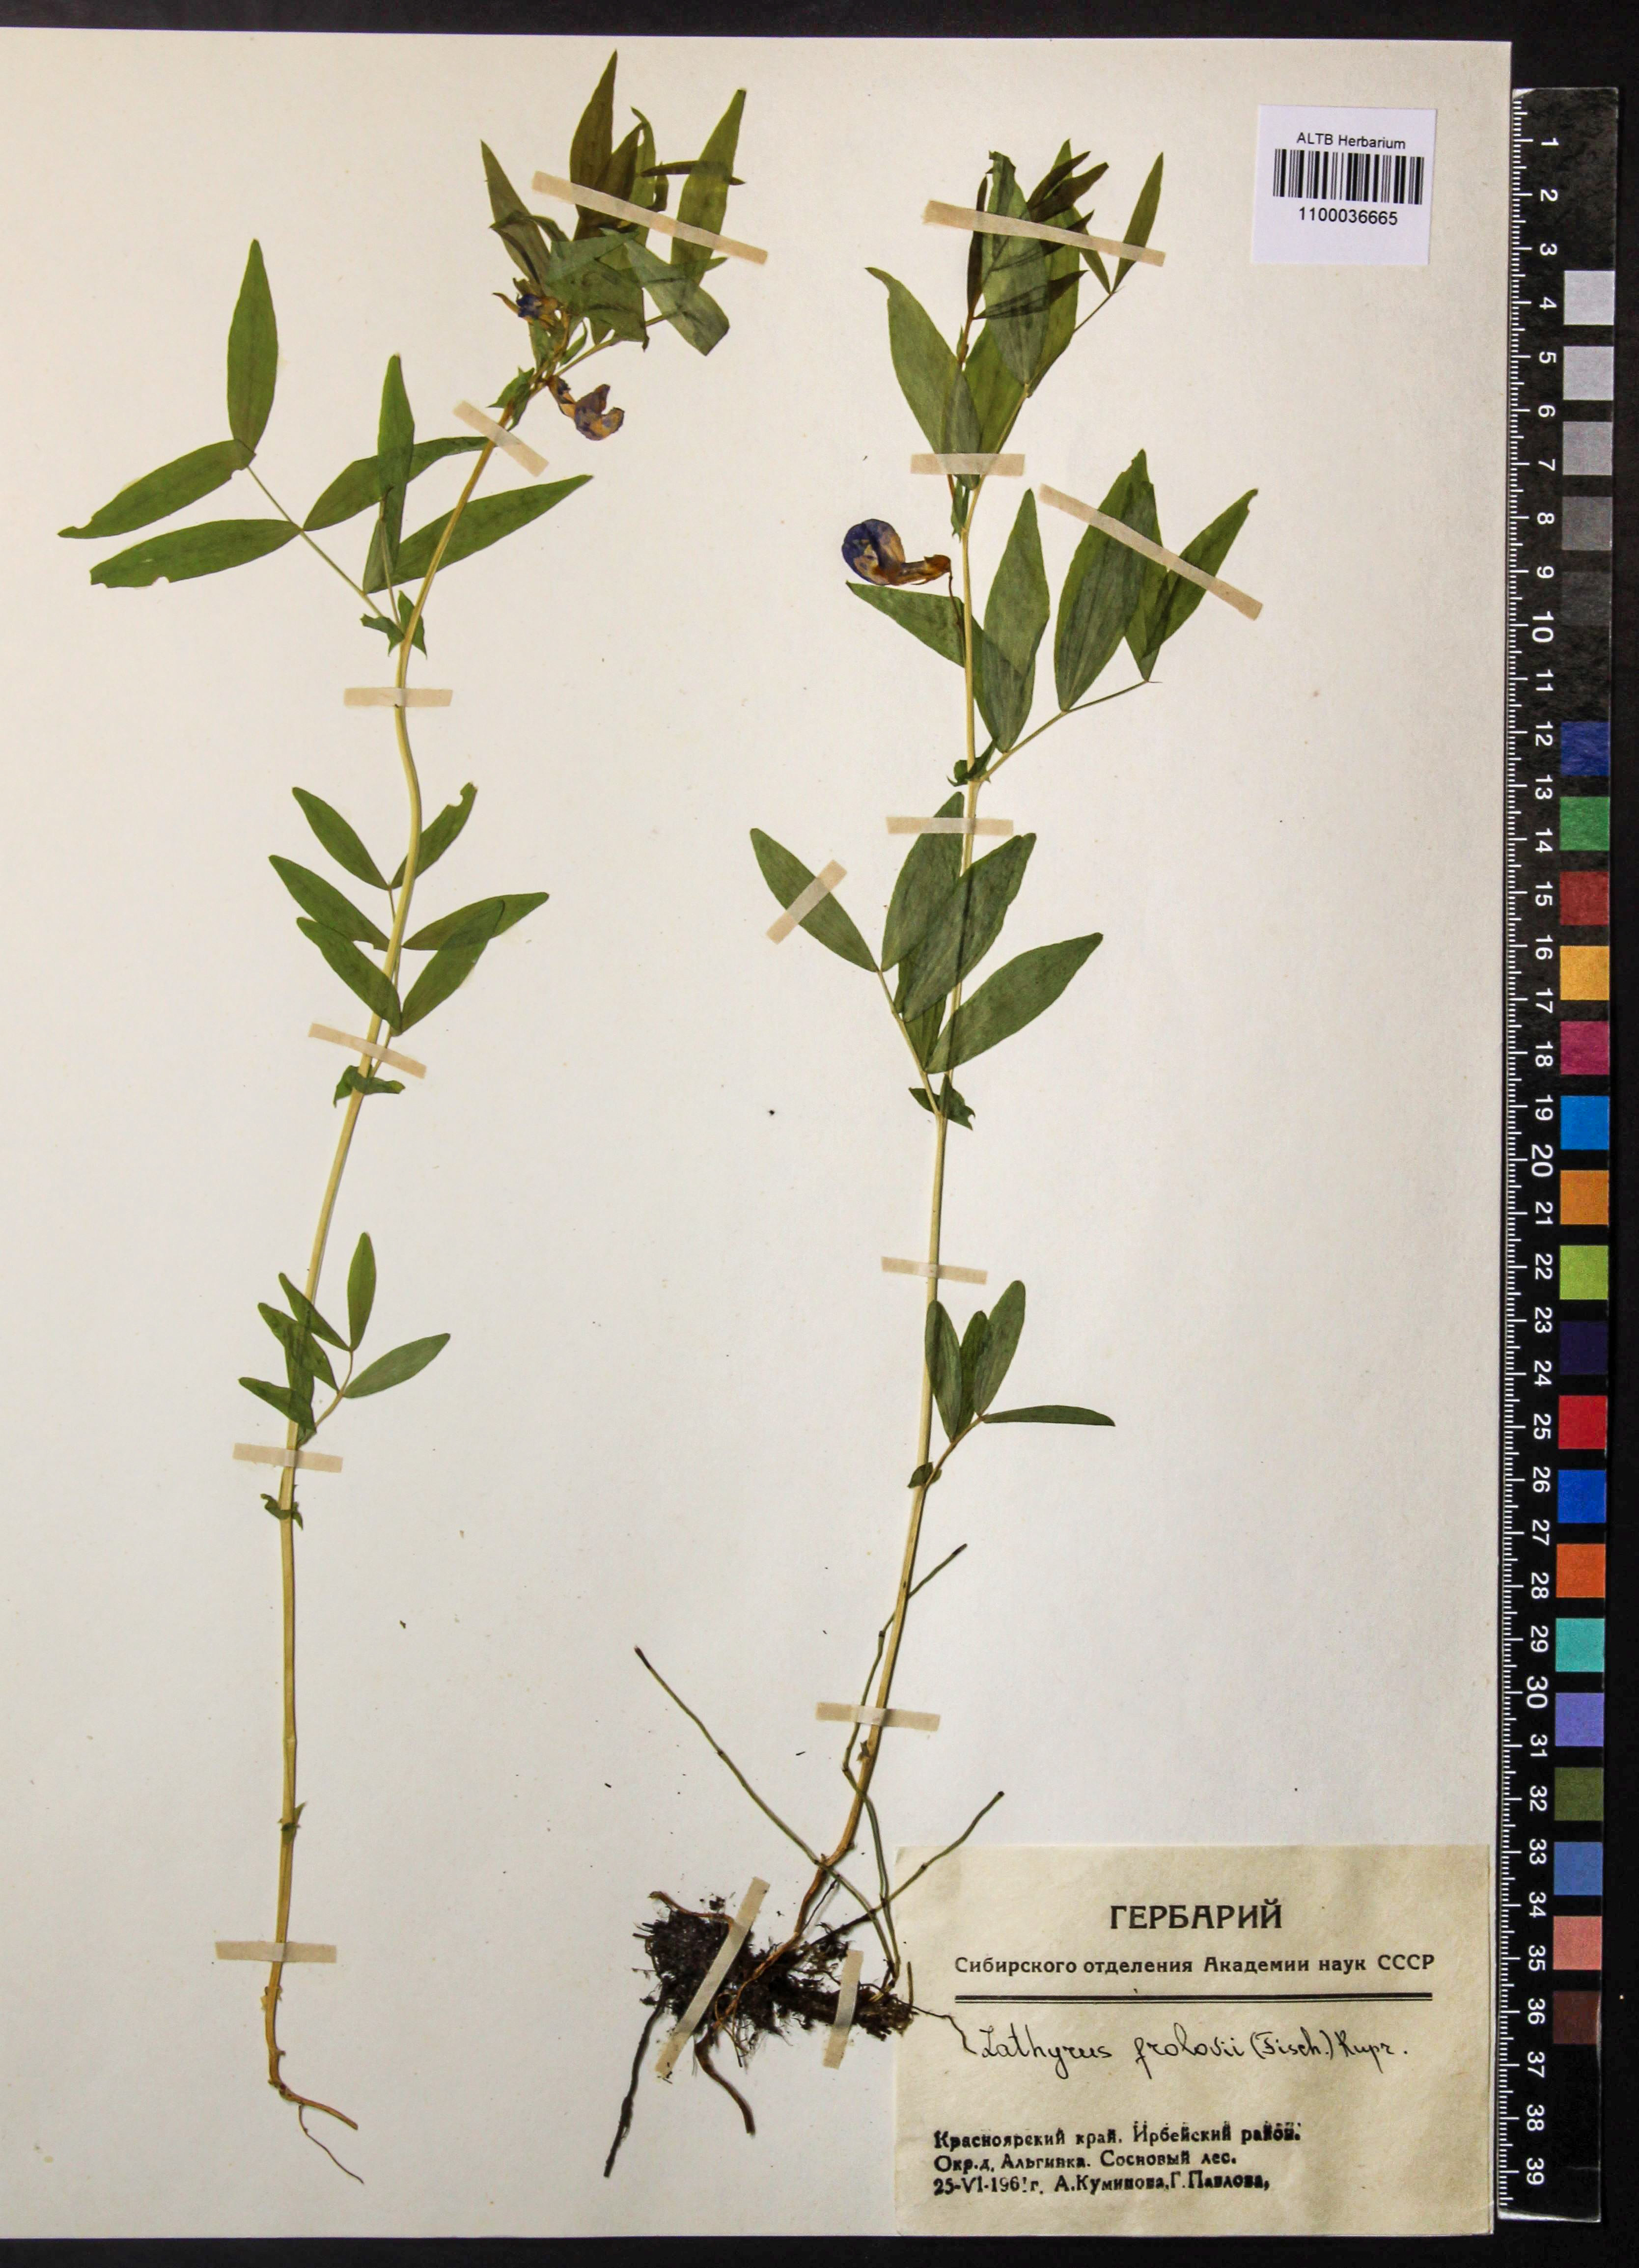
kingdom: Plantae
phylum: Tracheophyta
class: Magnoliopsida
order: Fabales
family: Fabaceae
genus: Lathyrus
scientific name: Lathyrus frolovii
